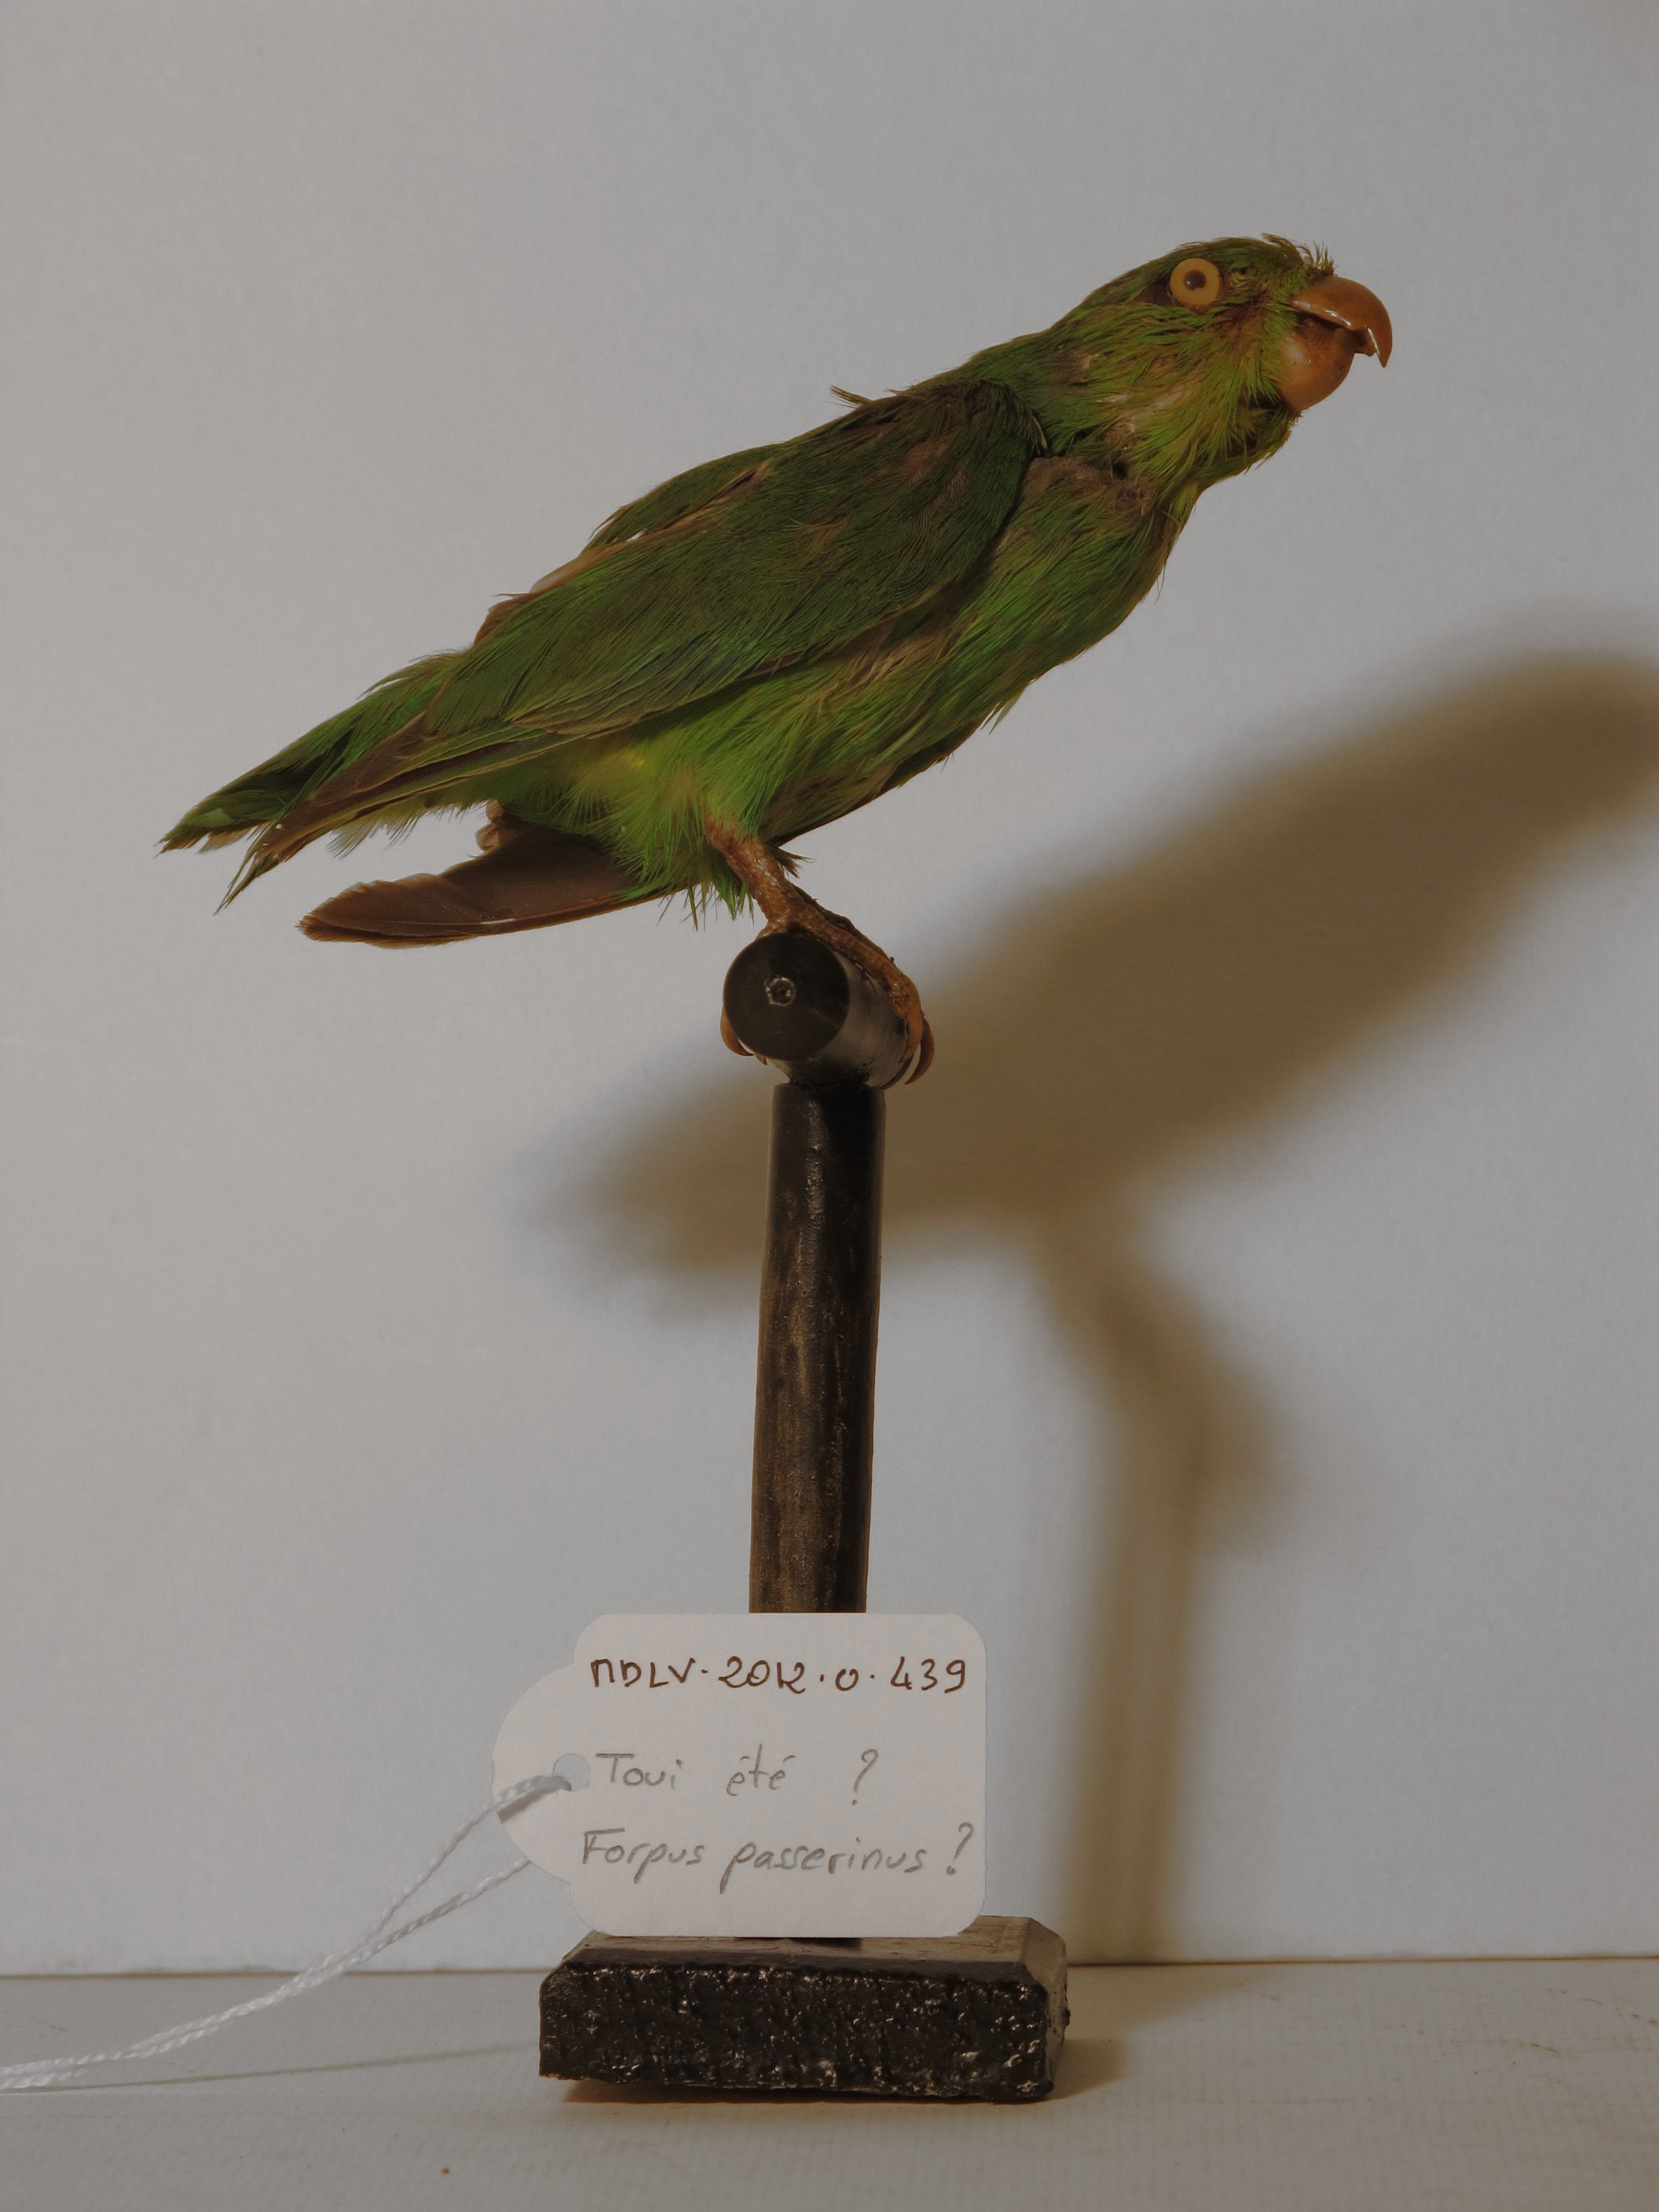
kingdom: Animalia
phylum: Chordata
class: Aves
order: Psittaciformes
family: Psittacidae
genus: Forpus
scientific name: Forpus
